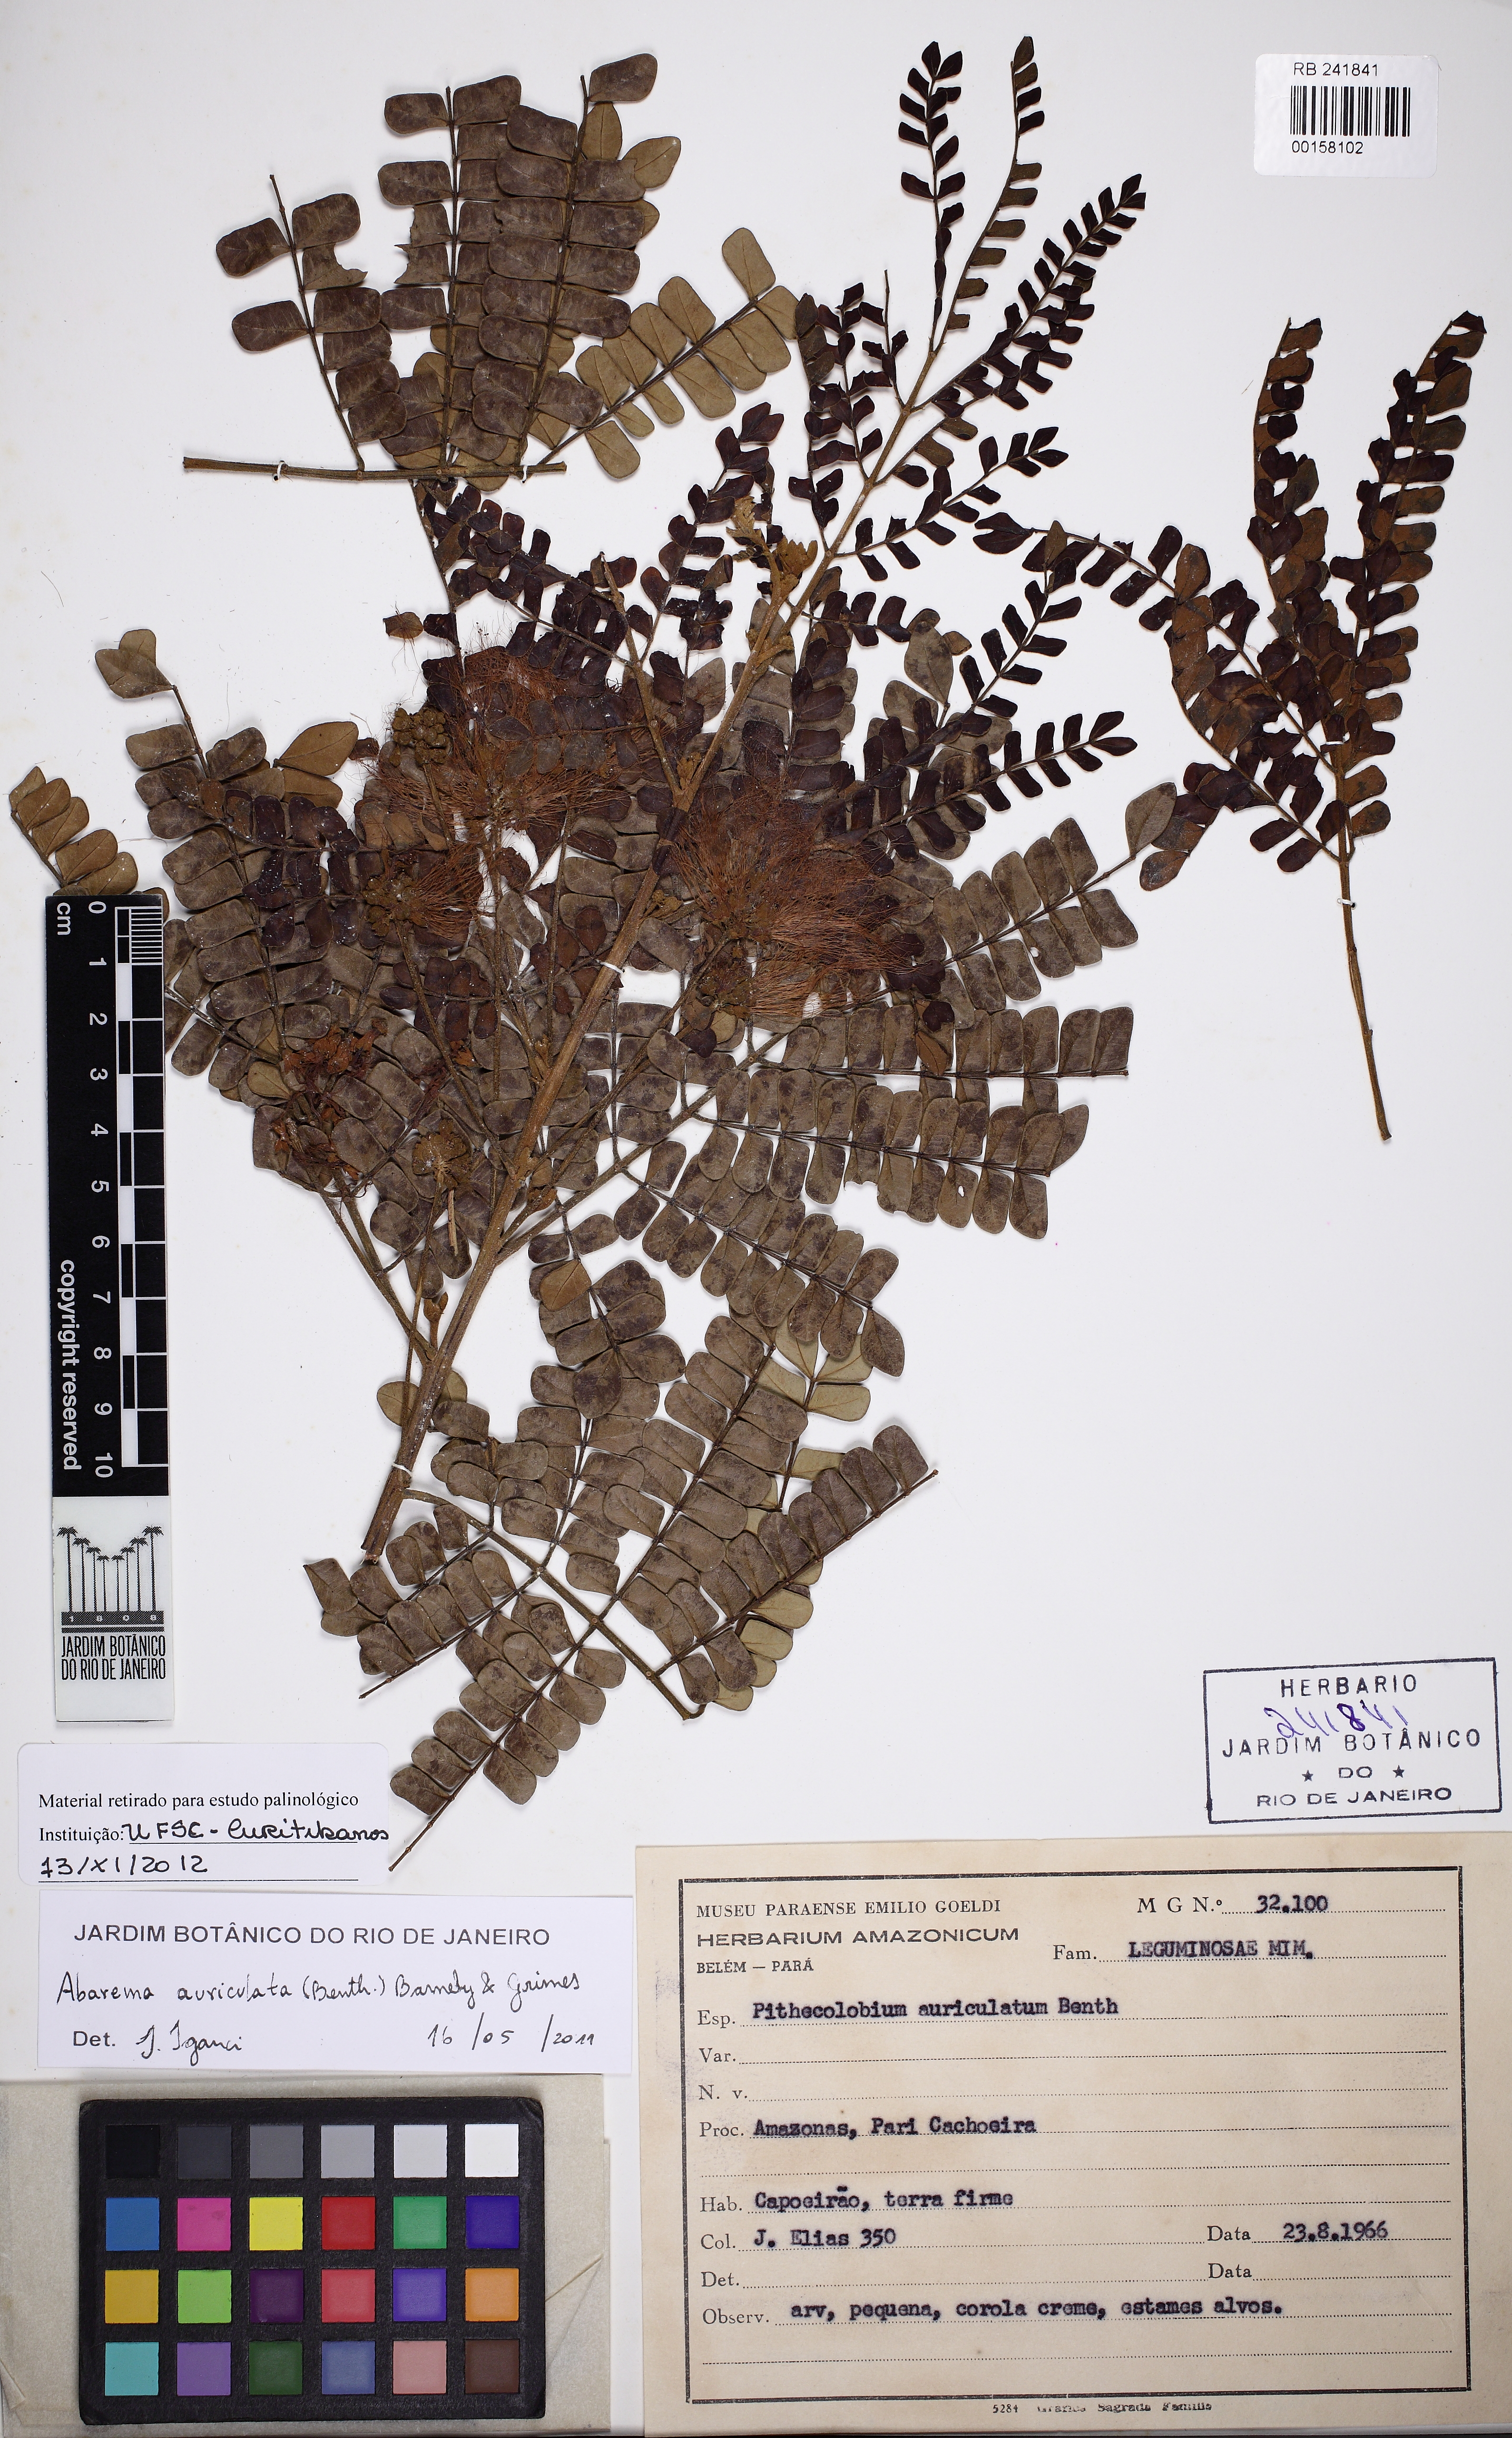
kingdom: Plantae
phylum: Tracheophyta
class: Magnoliopsida
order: Fabales
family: Fabaceae
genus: Jupunba
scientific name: Jupunba adenophora
